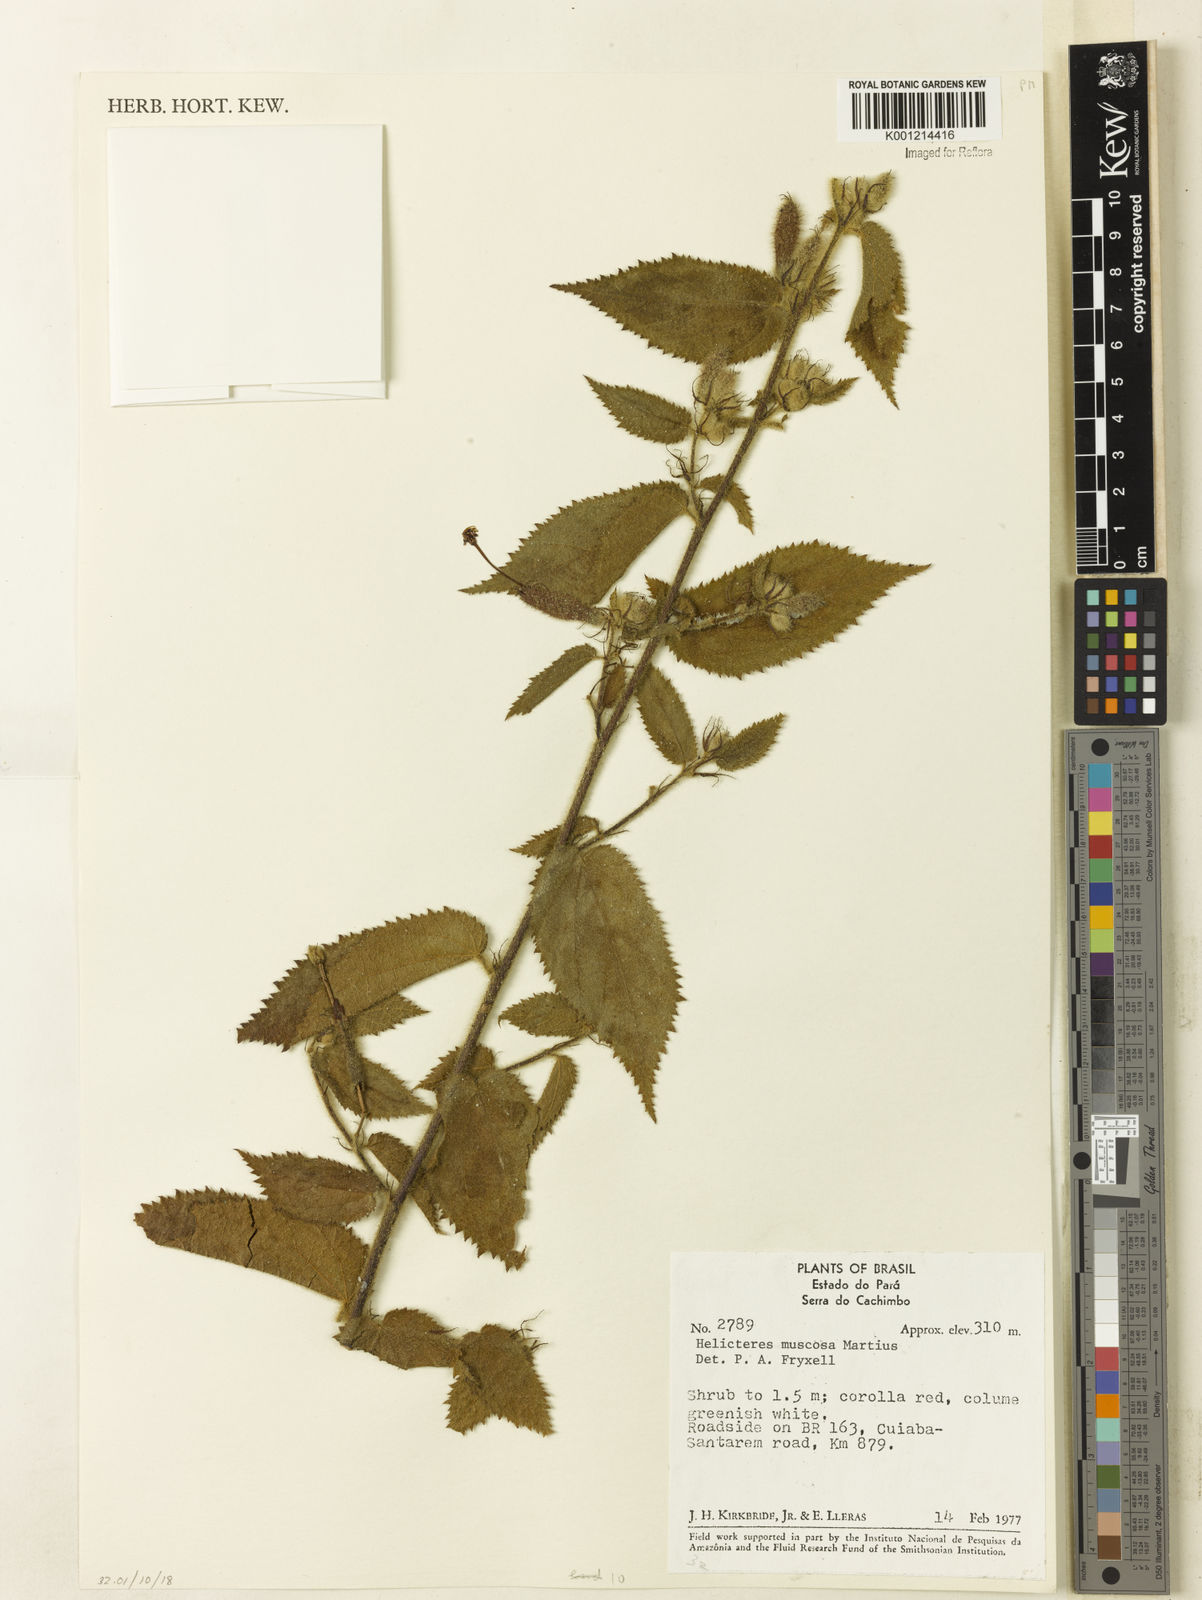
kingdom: Plantae
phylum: Tracheophyta
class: Magnoliopsida
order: Malvales
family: Malvaceae
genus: Helicteres
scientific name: Helicteres muscosa
